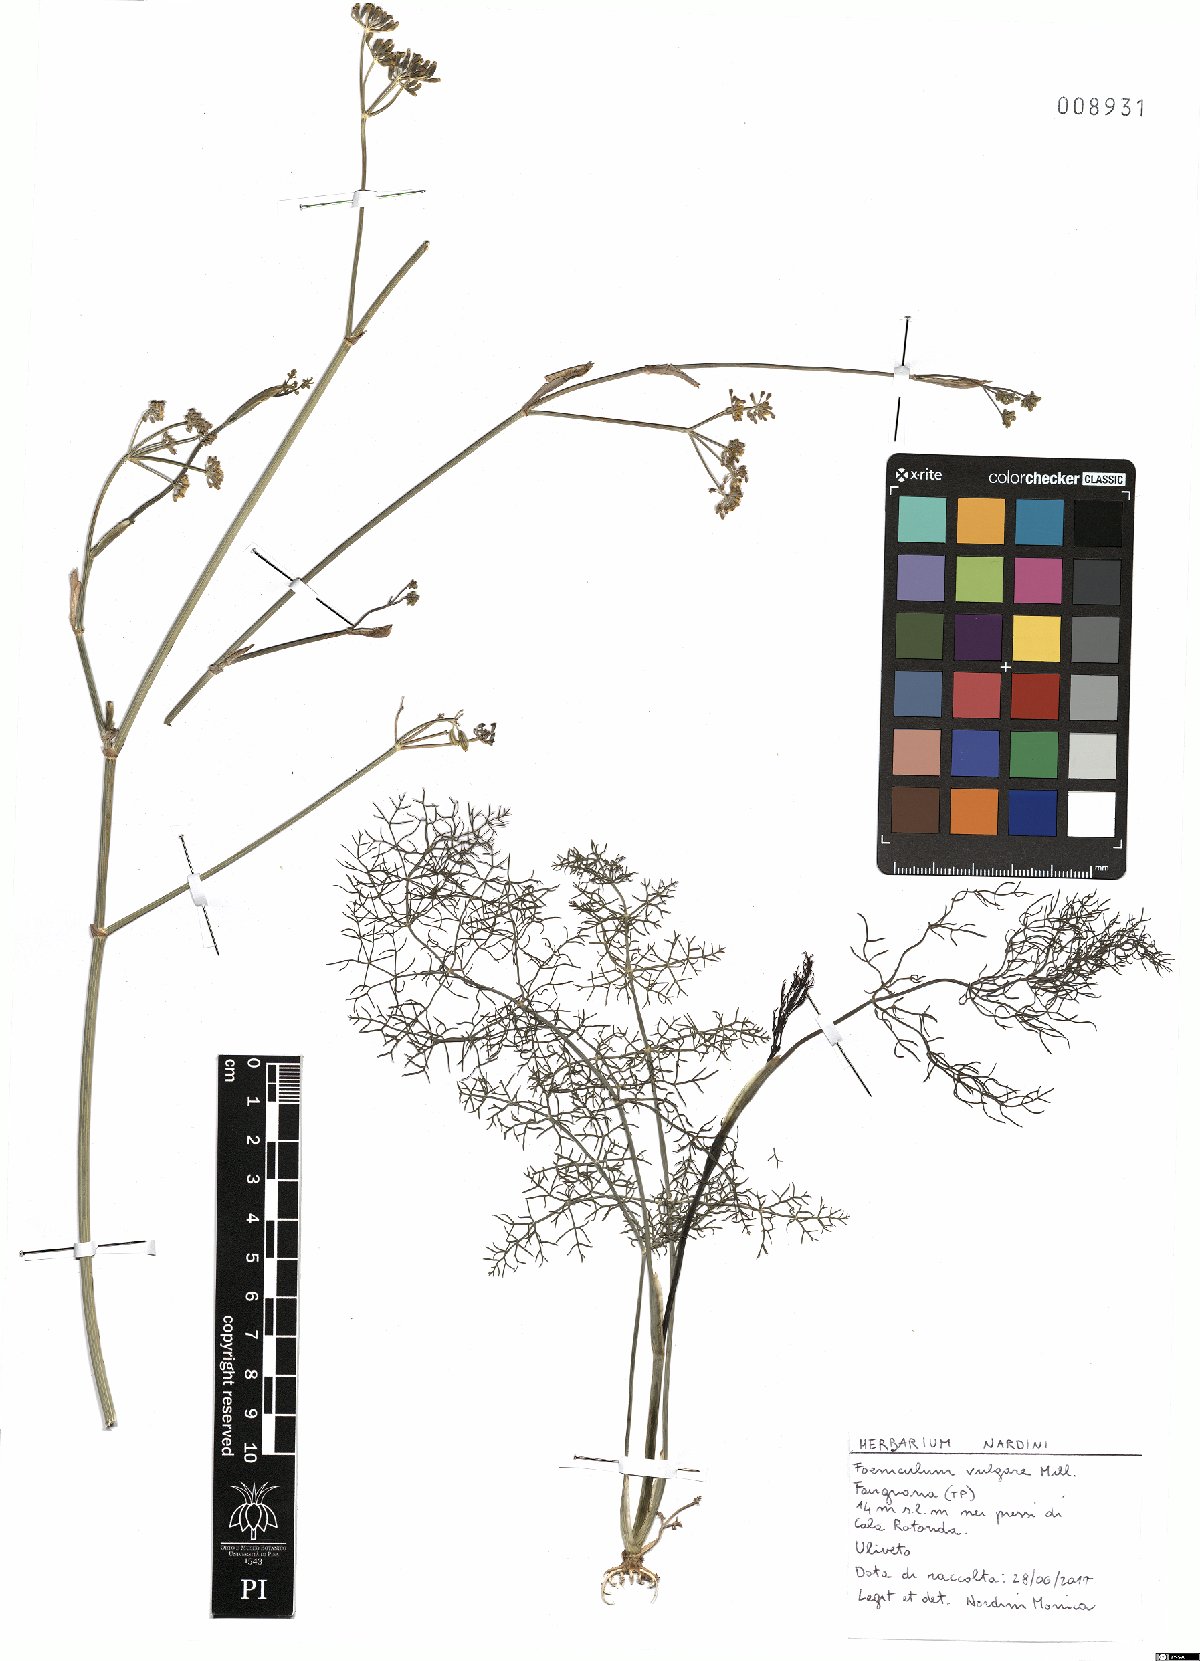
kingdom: Plantae
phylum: Tracheophyta
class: Magnoliopsida
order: Apiales
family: Apiaceae
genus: Foeniculum
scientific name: Foeniculum vulgare
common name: Fennel
